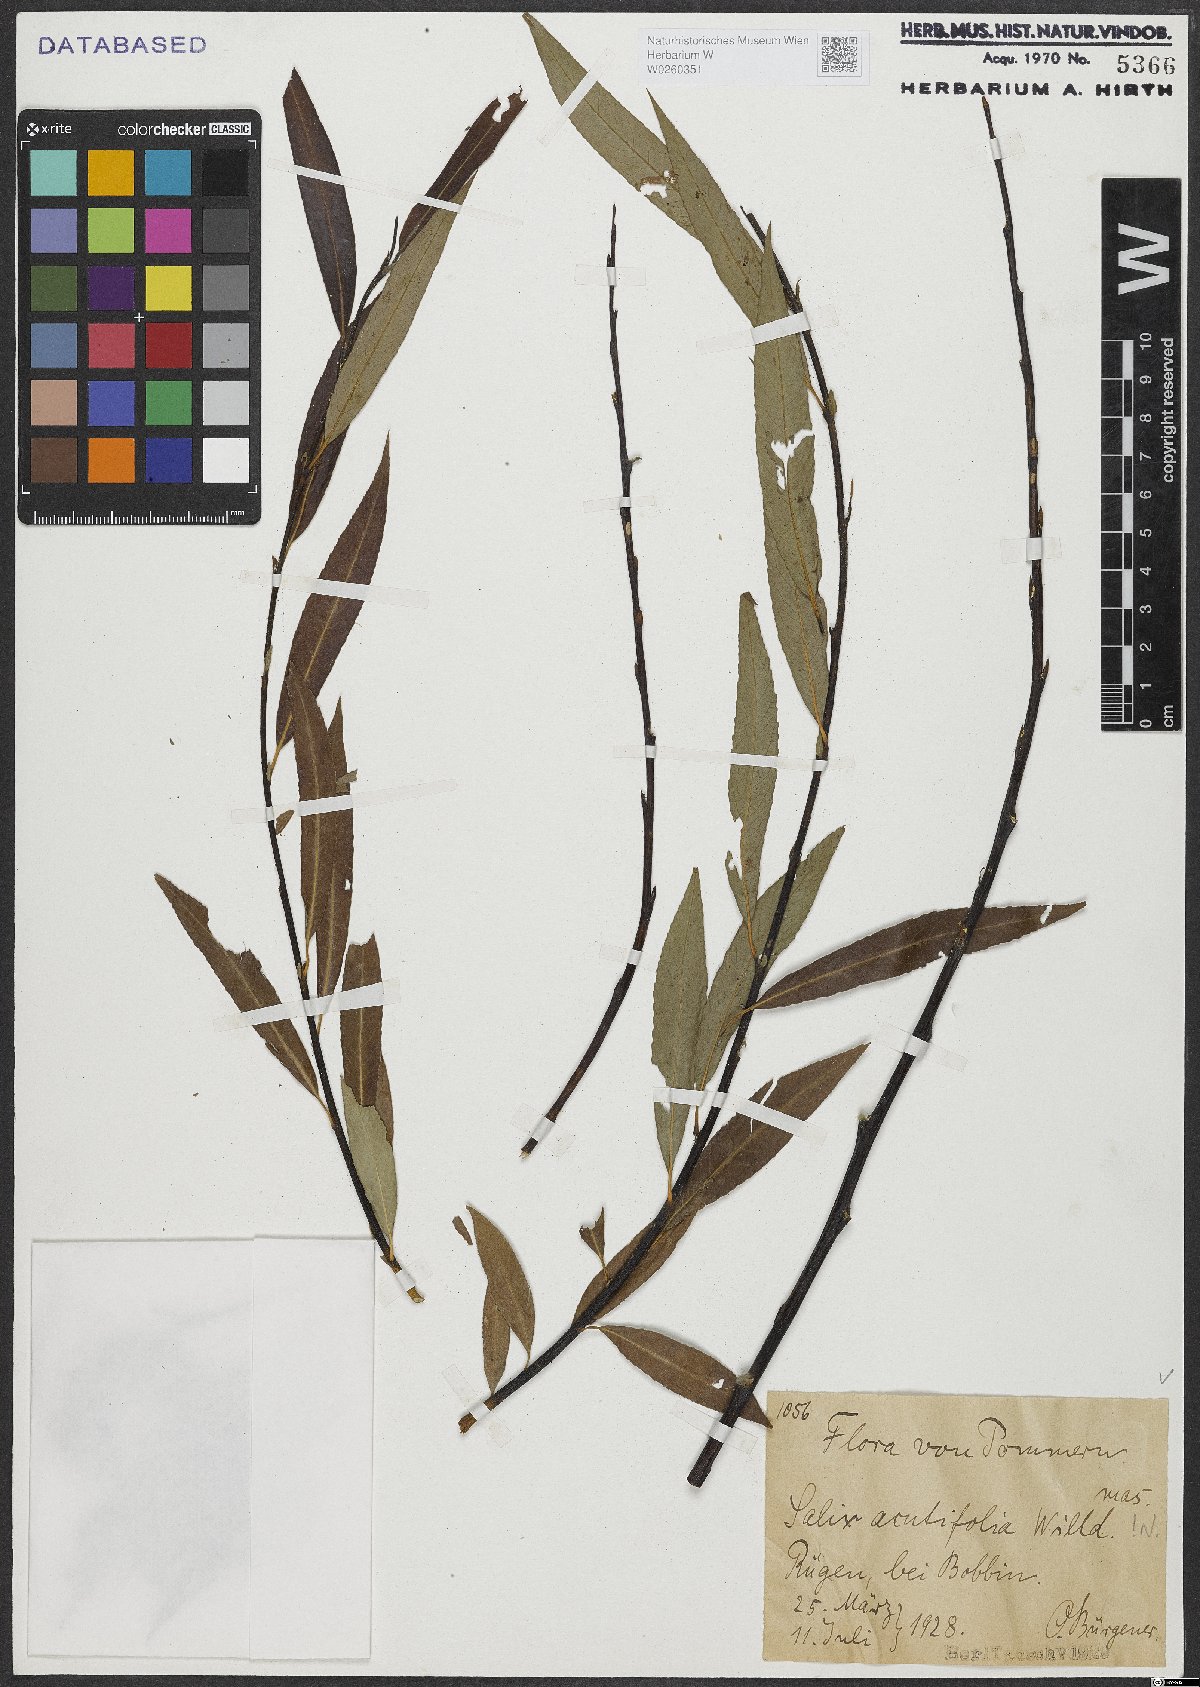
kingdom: Plantae
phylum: Tracheophyta
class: Magnoliopsida
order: Malpighiales
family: Salicaceae
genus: Salix
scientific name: Salix acutifolia
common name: Siberian violet-willow
